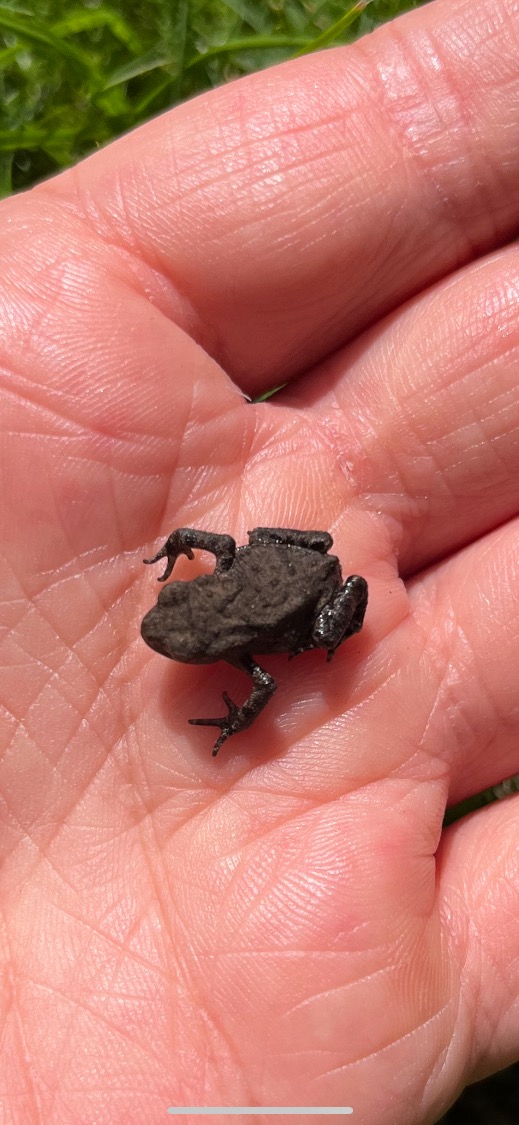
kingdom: Animalia
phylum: Chordata
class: Amphibia
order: Anura
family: Bufonidae
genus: Bufo
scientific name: Bufo bufo
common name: Skrubtudse
